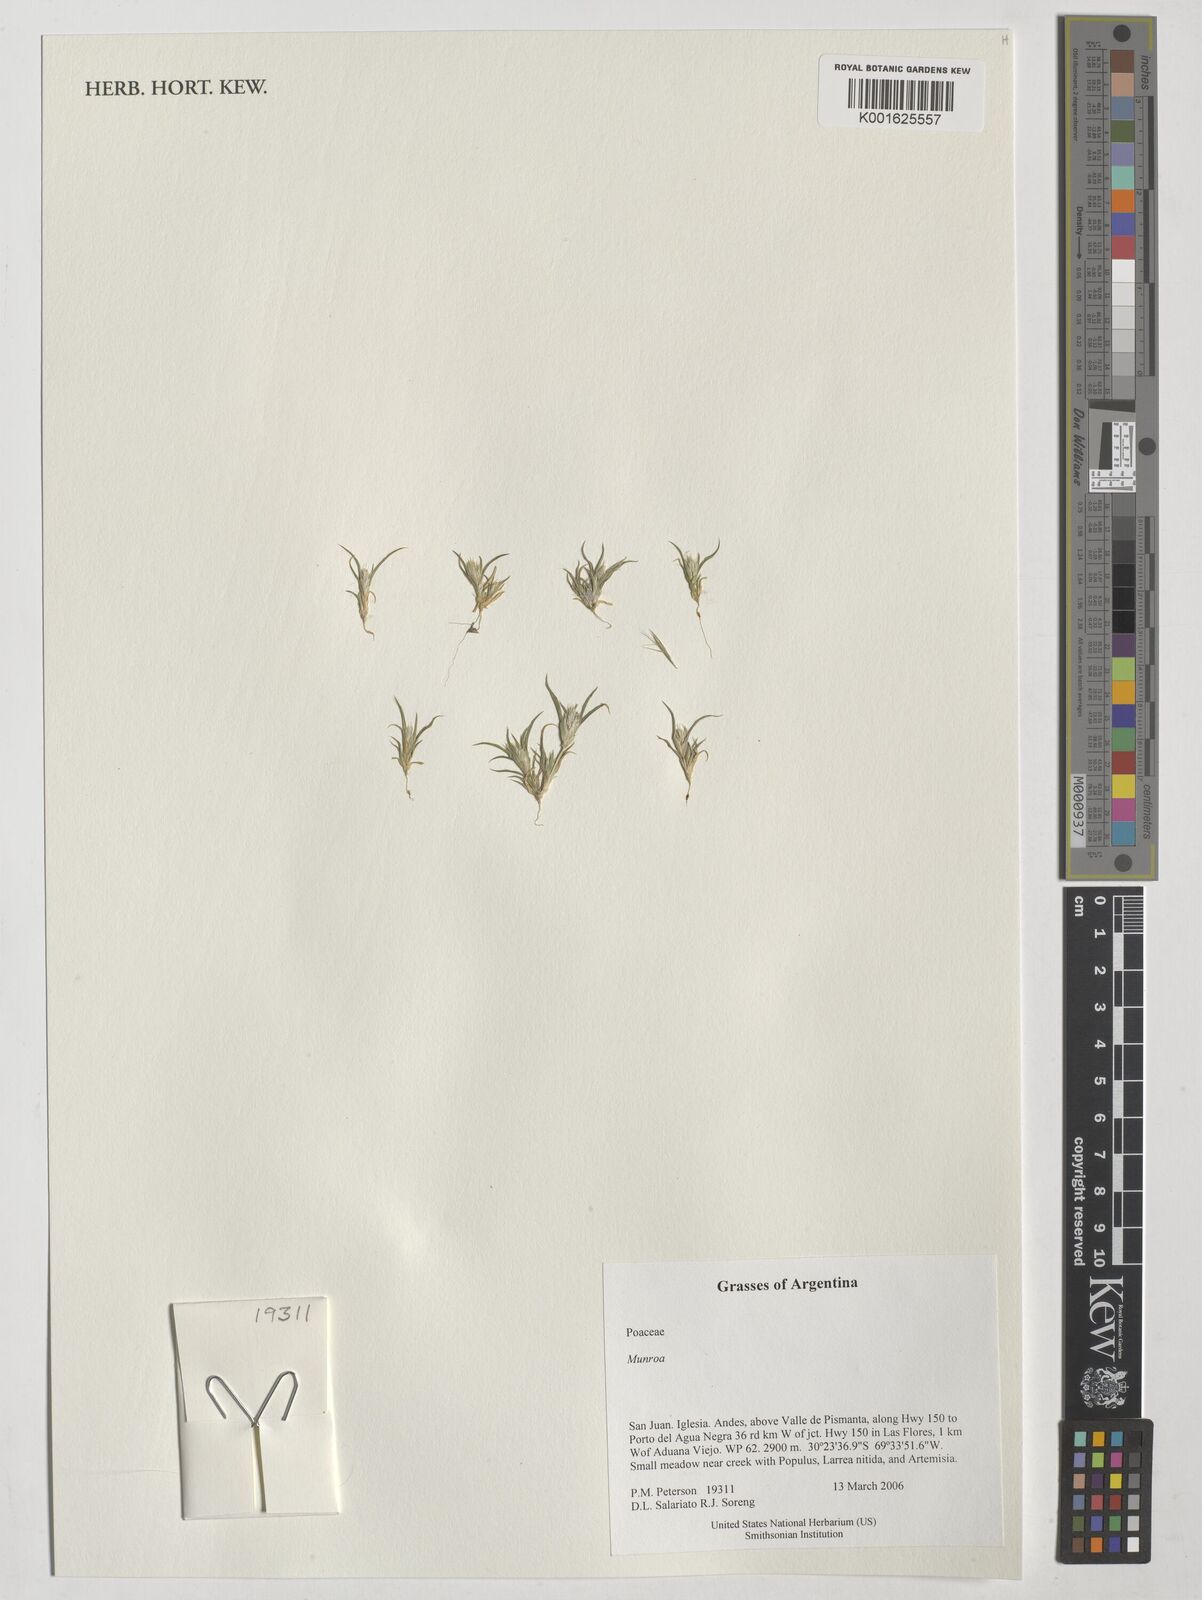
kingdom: Plantae
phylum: Tracheophyta
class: Liliopsida
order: Poales
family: Poaceae
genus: Munroa
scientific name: Munroa
